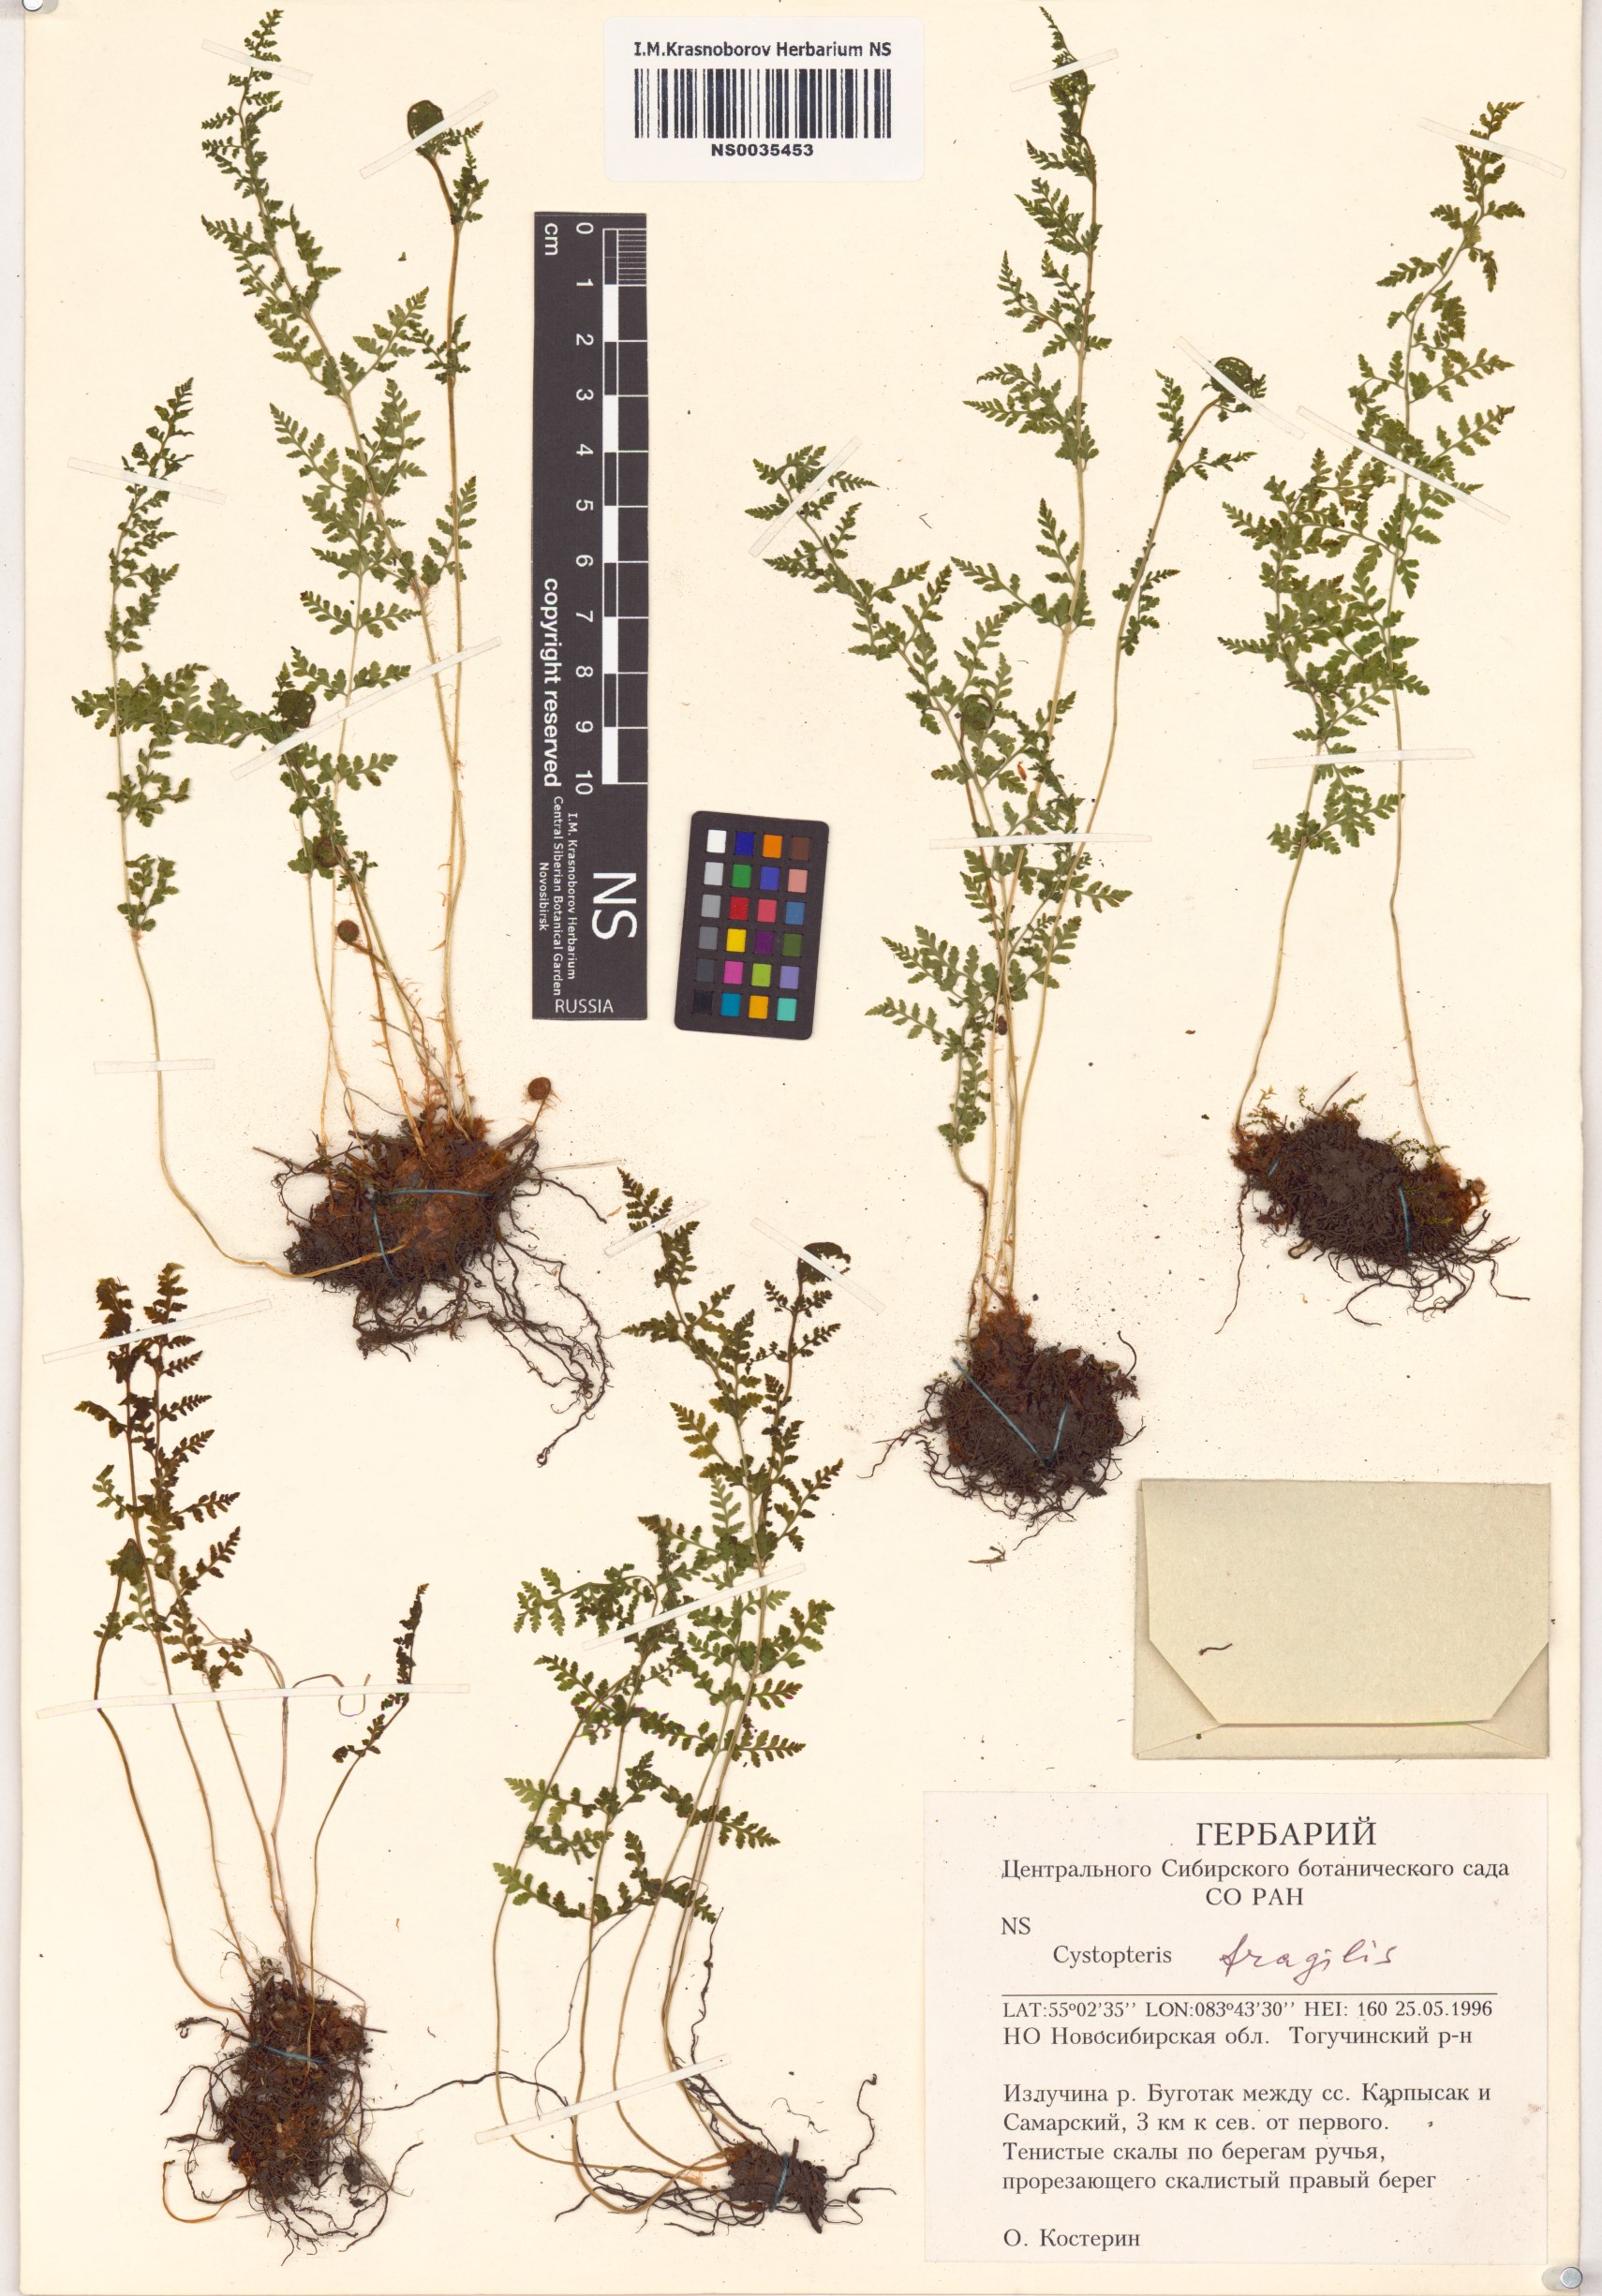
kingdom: Plantae
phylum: Tracheophyta
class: Polypodiopsida
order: Polypodiales
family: Cystopteridaceae
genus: Cystopteris
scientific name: Cystopteris fragilis
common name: Brittle bladder fern
